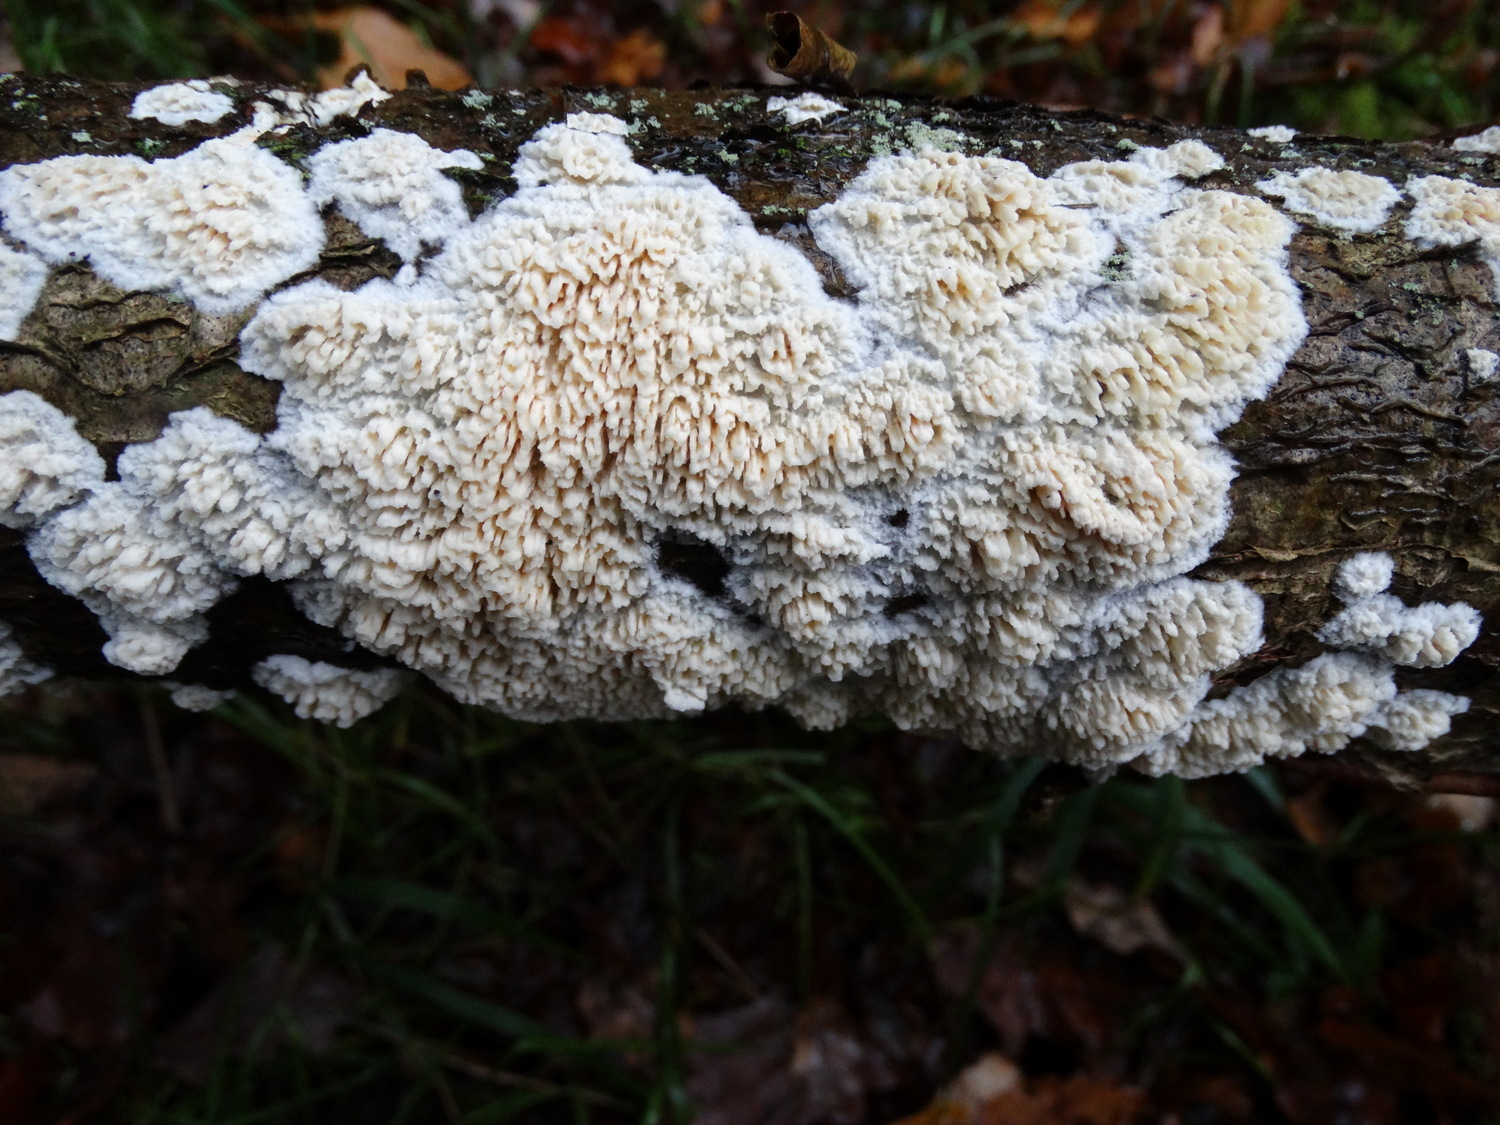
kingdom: Fungi
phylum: Basidiomycota
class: Agaricomycetes
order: Hymenochaetales
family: Schizoporaceae
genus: Xylodon
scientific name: Xylodon radula
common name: grovtandet kalkskind
